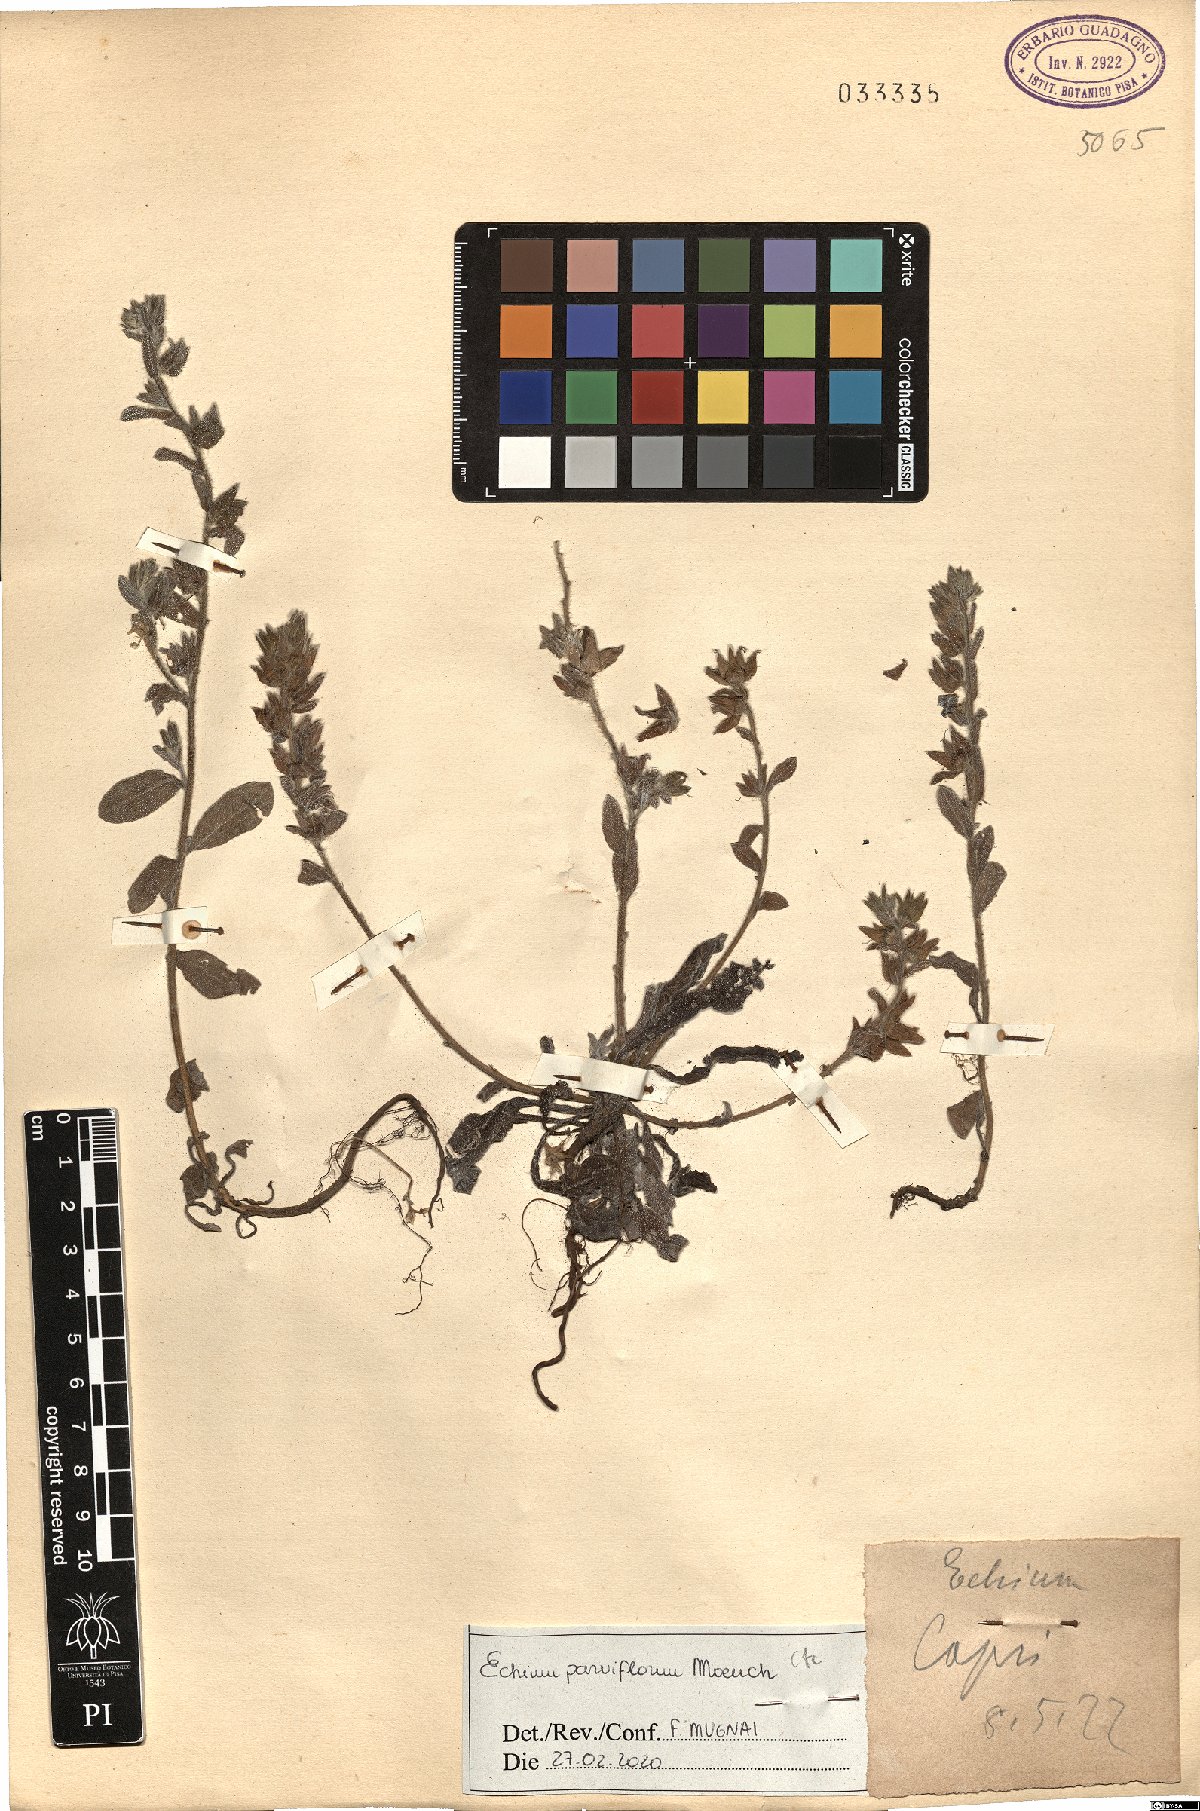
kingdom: Plantae
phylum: Tracheophyta
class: Magnoliopsida
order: Boraginales
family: Boraginaceae
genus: Echium
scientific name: Echium parviflorum
